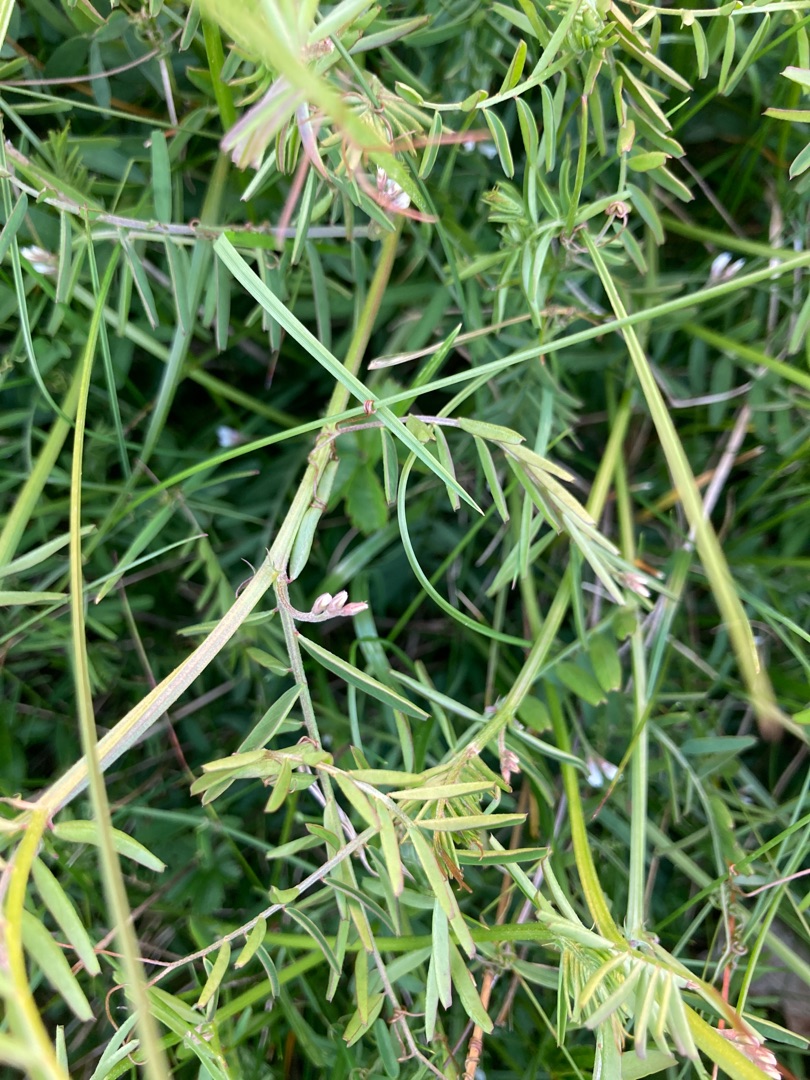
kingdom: Plantae
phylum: Tracheophyta
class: Magnoliopsida
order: Fabales
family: Fabaceae
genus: Vicia
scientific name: Vicia hirsuta
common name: Tofrøet vikke
